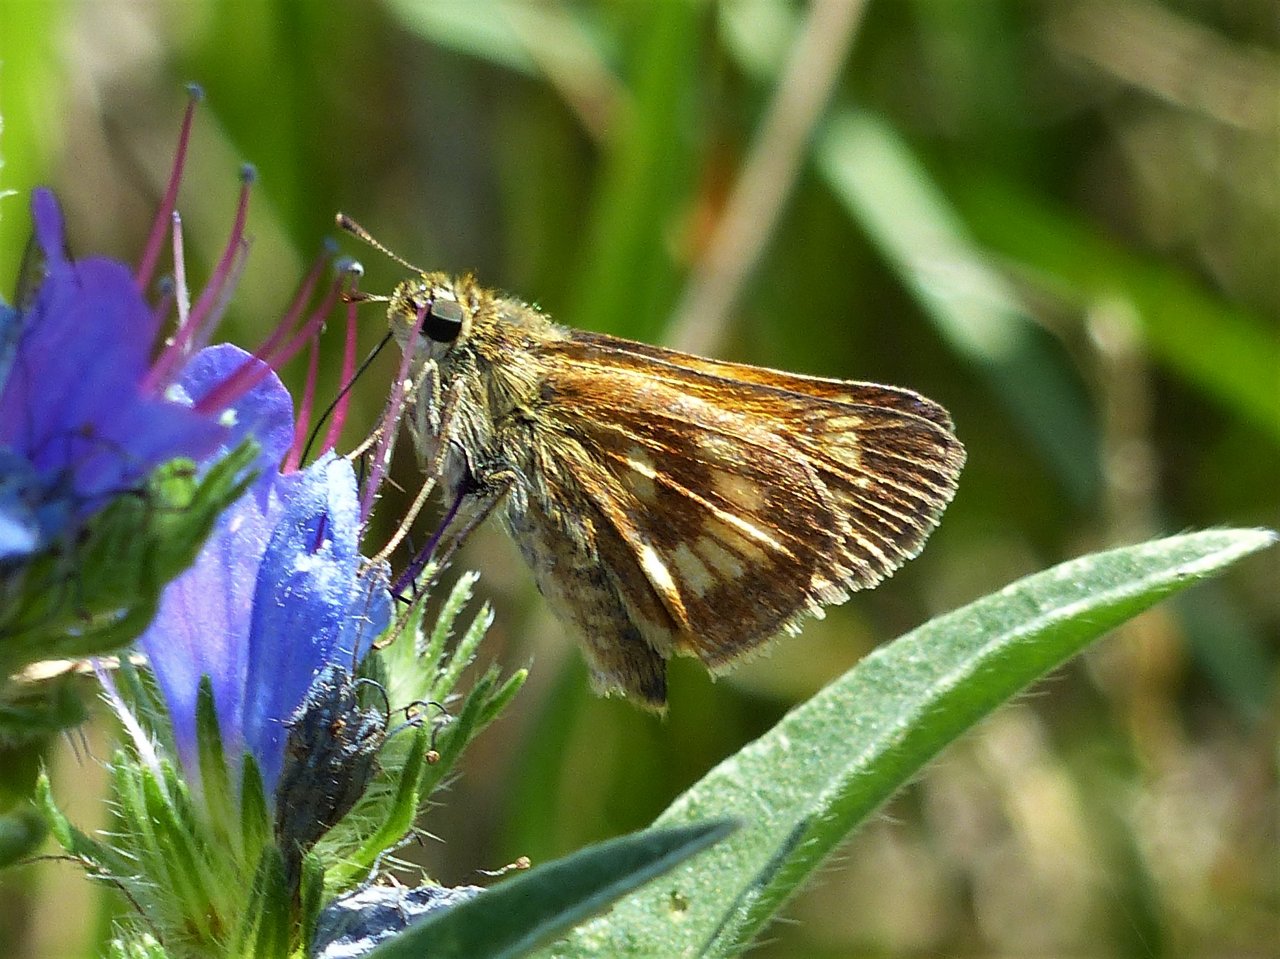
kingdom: Animalia
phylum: Arthropoda
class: Insecta
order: Lepidoptera
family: Hesperiidae
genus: Polites
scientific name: Polites
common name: Long Dash Skipper
